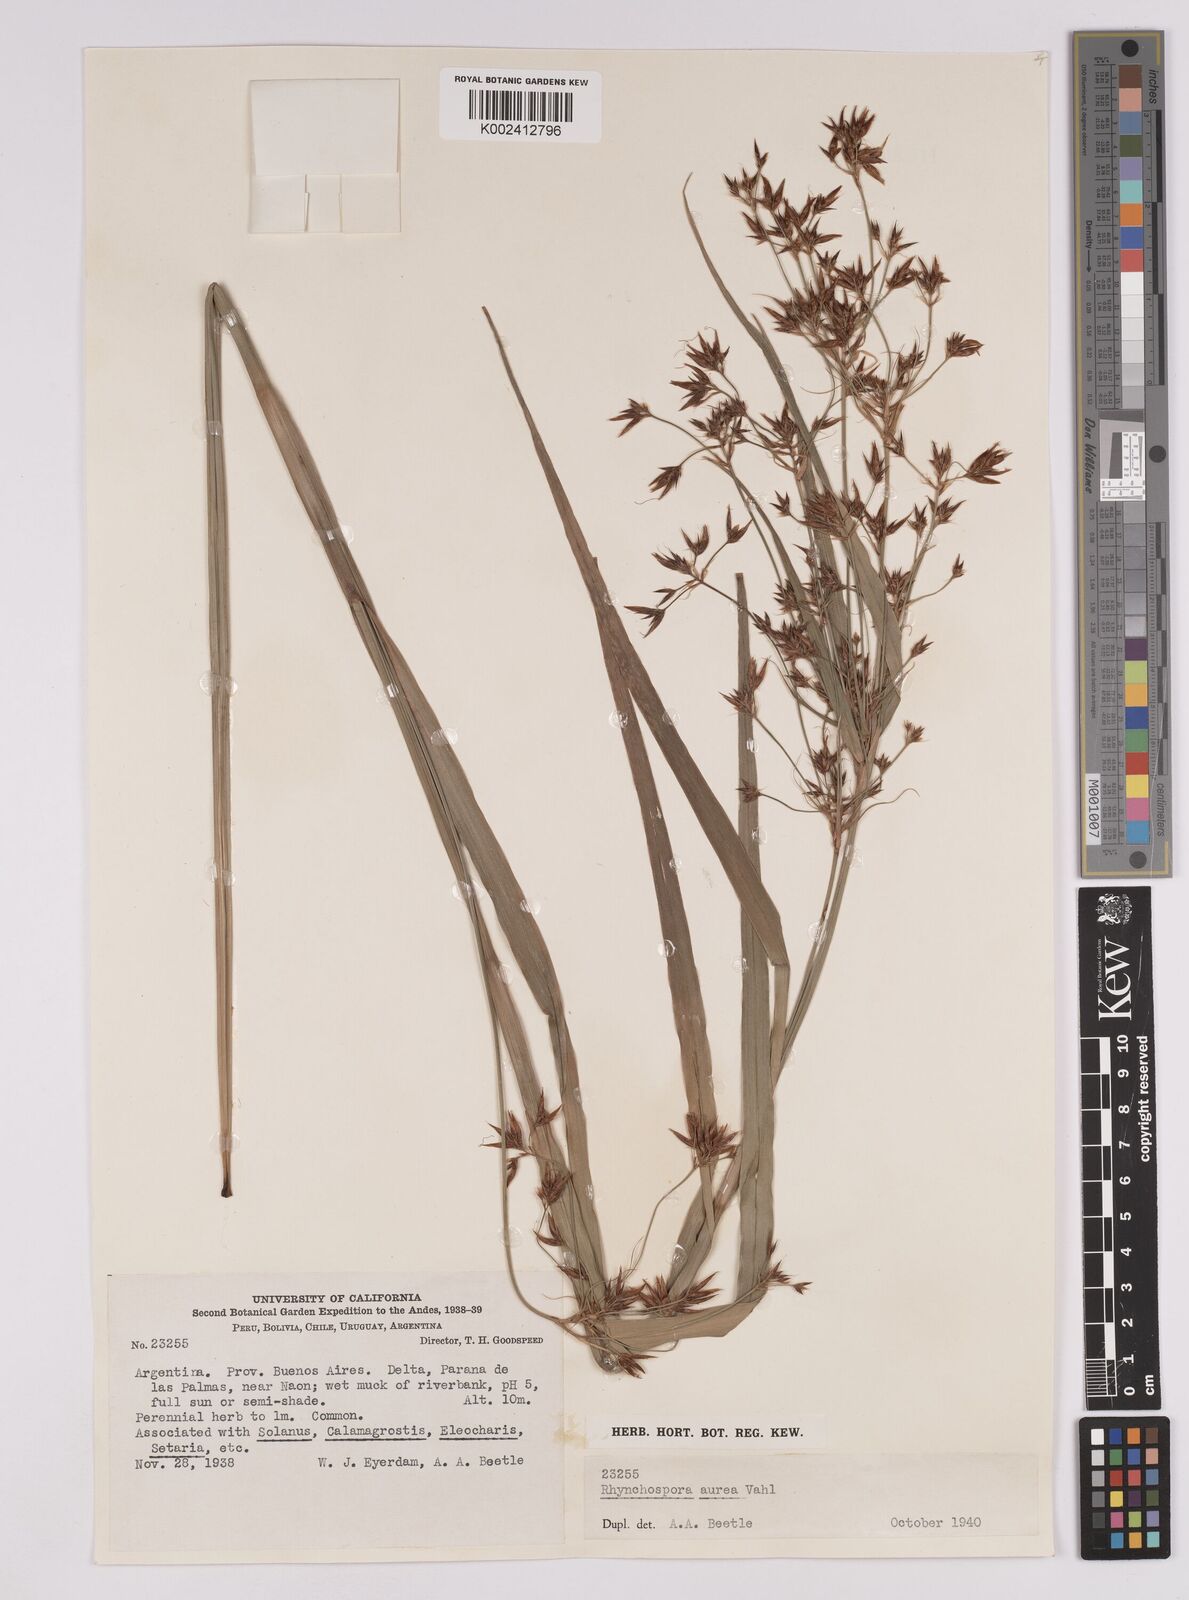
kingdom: Plantae
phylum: Tracheophyta
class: Liliopsida
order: Poales
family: Cyperaceae
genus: Rhynchospora
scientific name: Rhynchospora corymbosa
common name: Golden beak sedge
